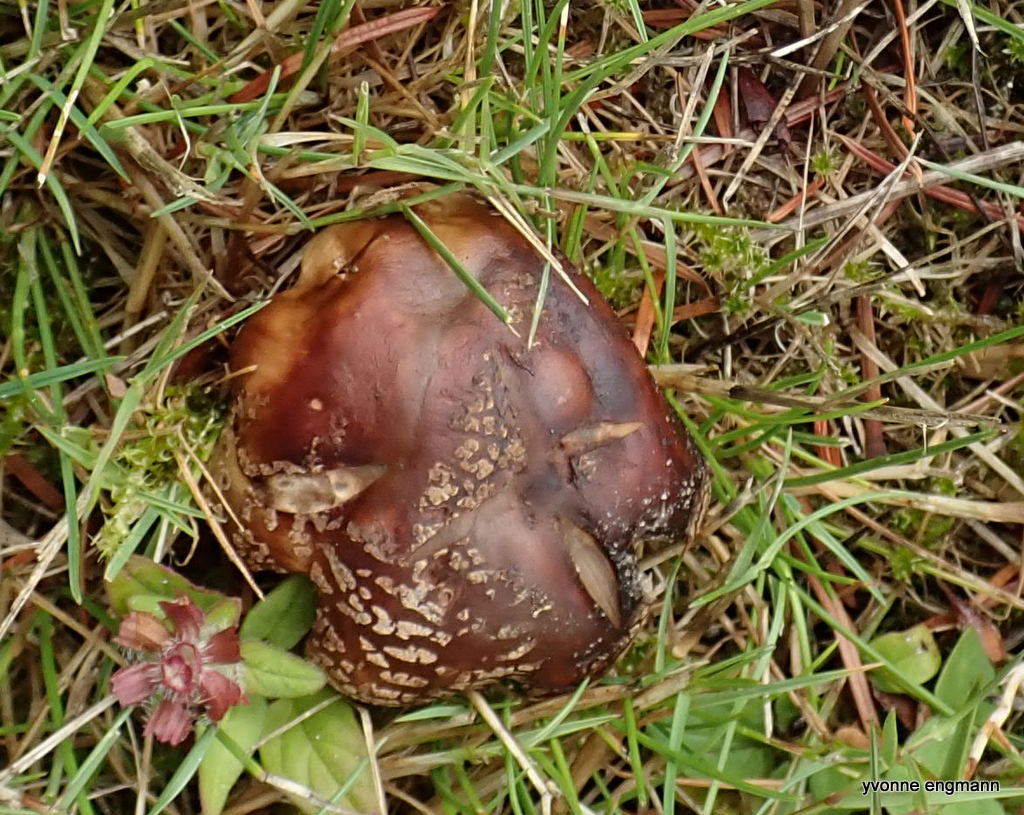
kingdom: Fungi
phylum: Basidiomycota
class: Agaricomycetes
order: Agaricales
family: Amanitaceae
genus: Amanita
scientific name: Amanita rubescens
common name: rødmende fluesvamp
